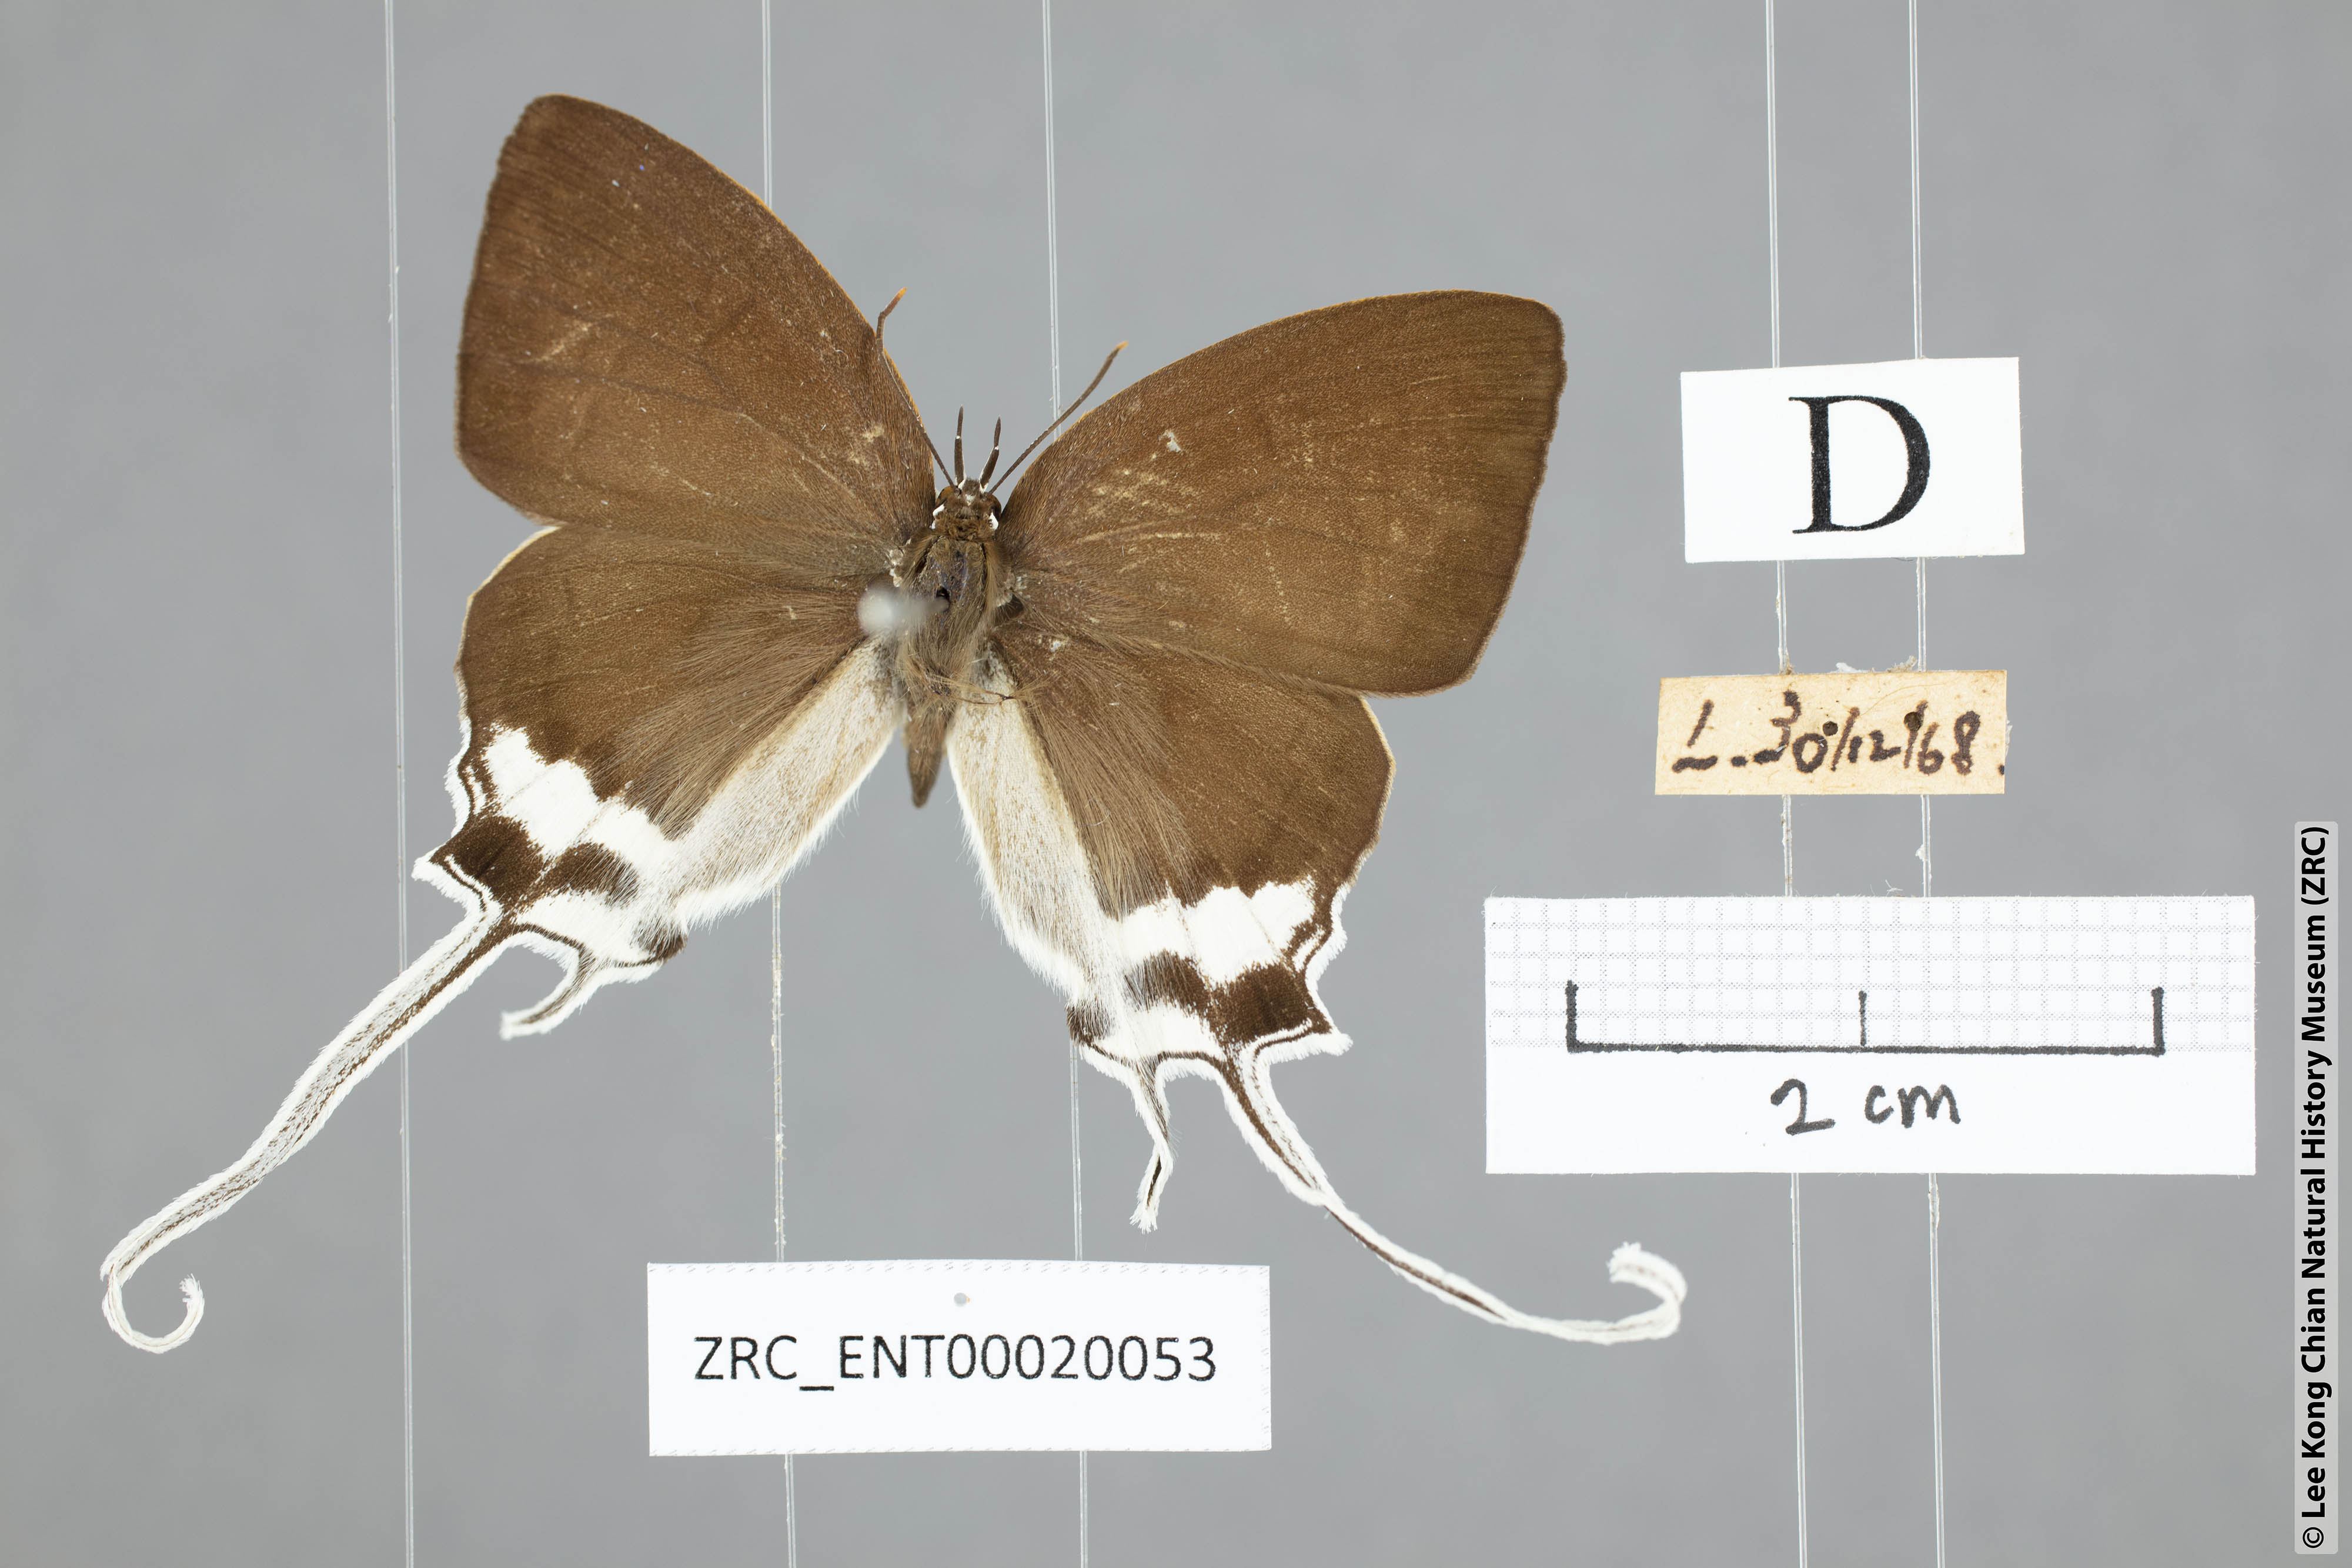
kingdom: Animalia
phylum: Arthropoda
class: Insecta
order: Lepidoptera
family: Lycaenidae
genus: Cheritra
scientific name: Cheritra freja
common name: Common imperial
